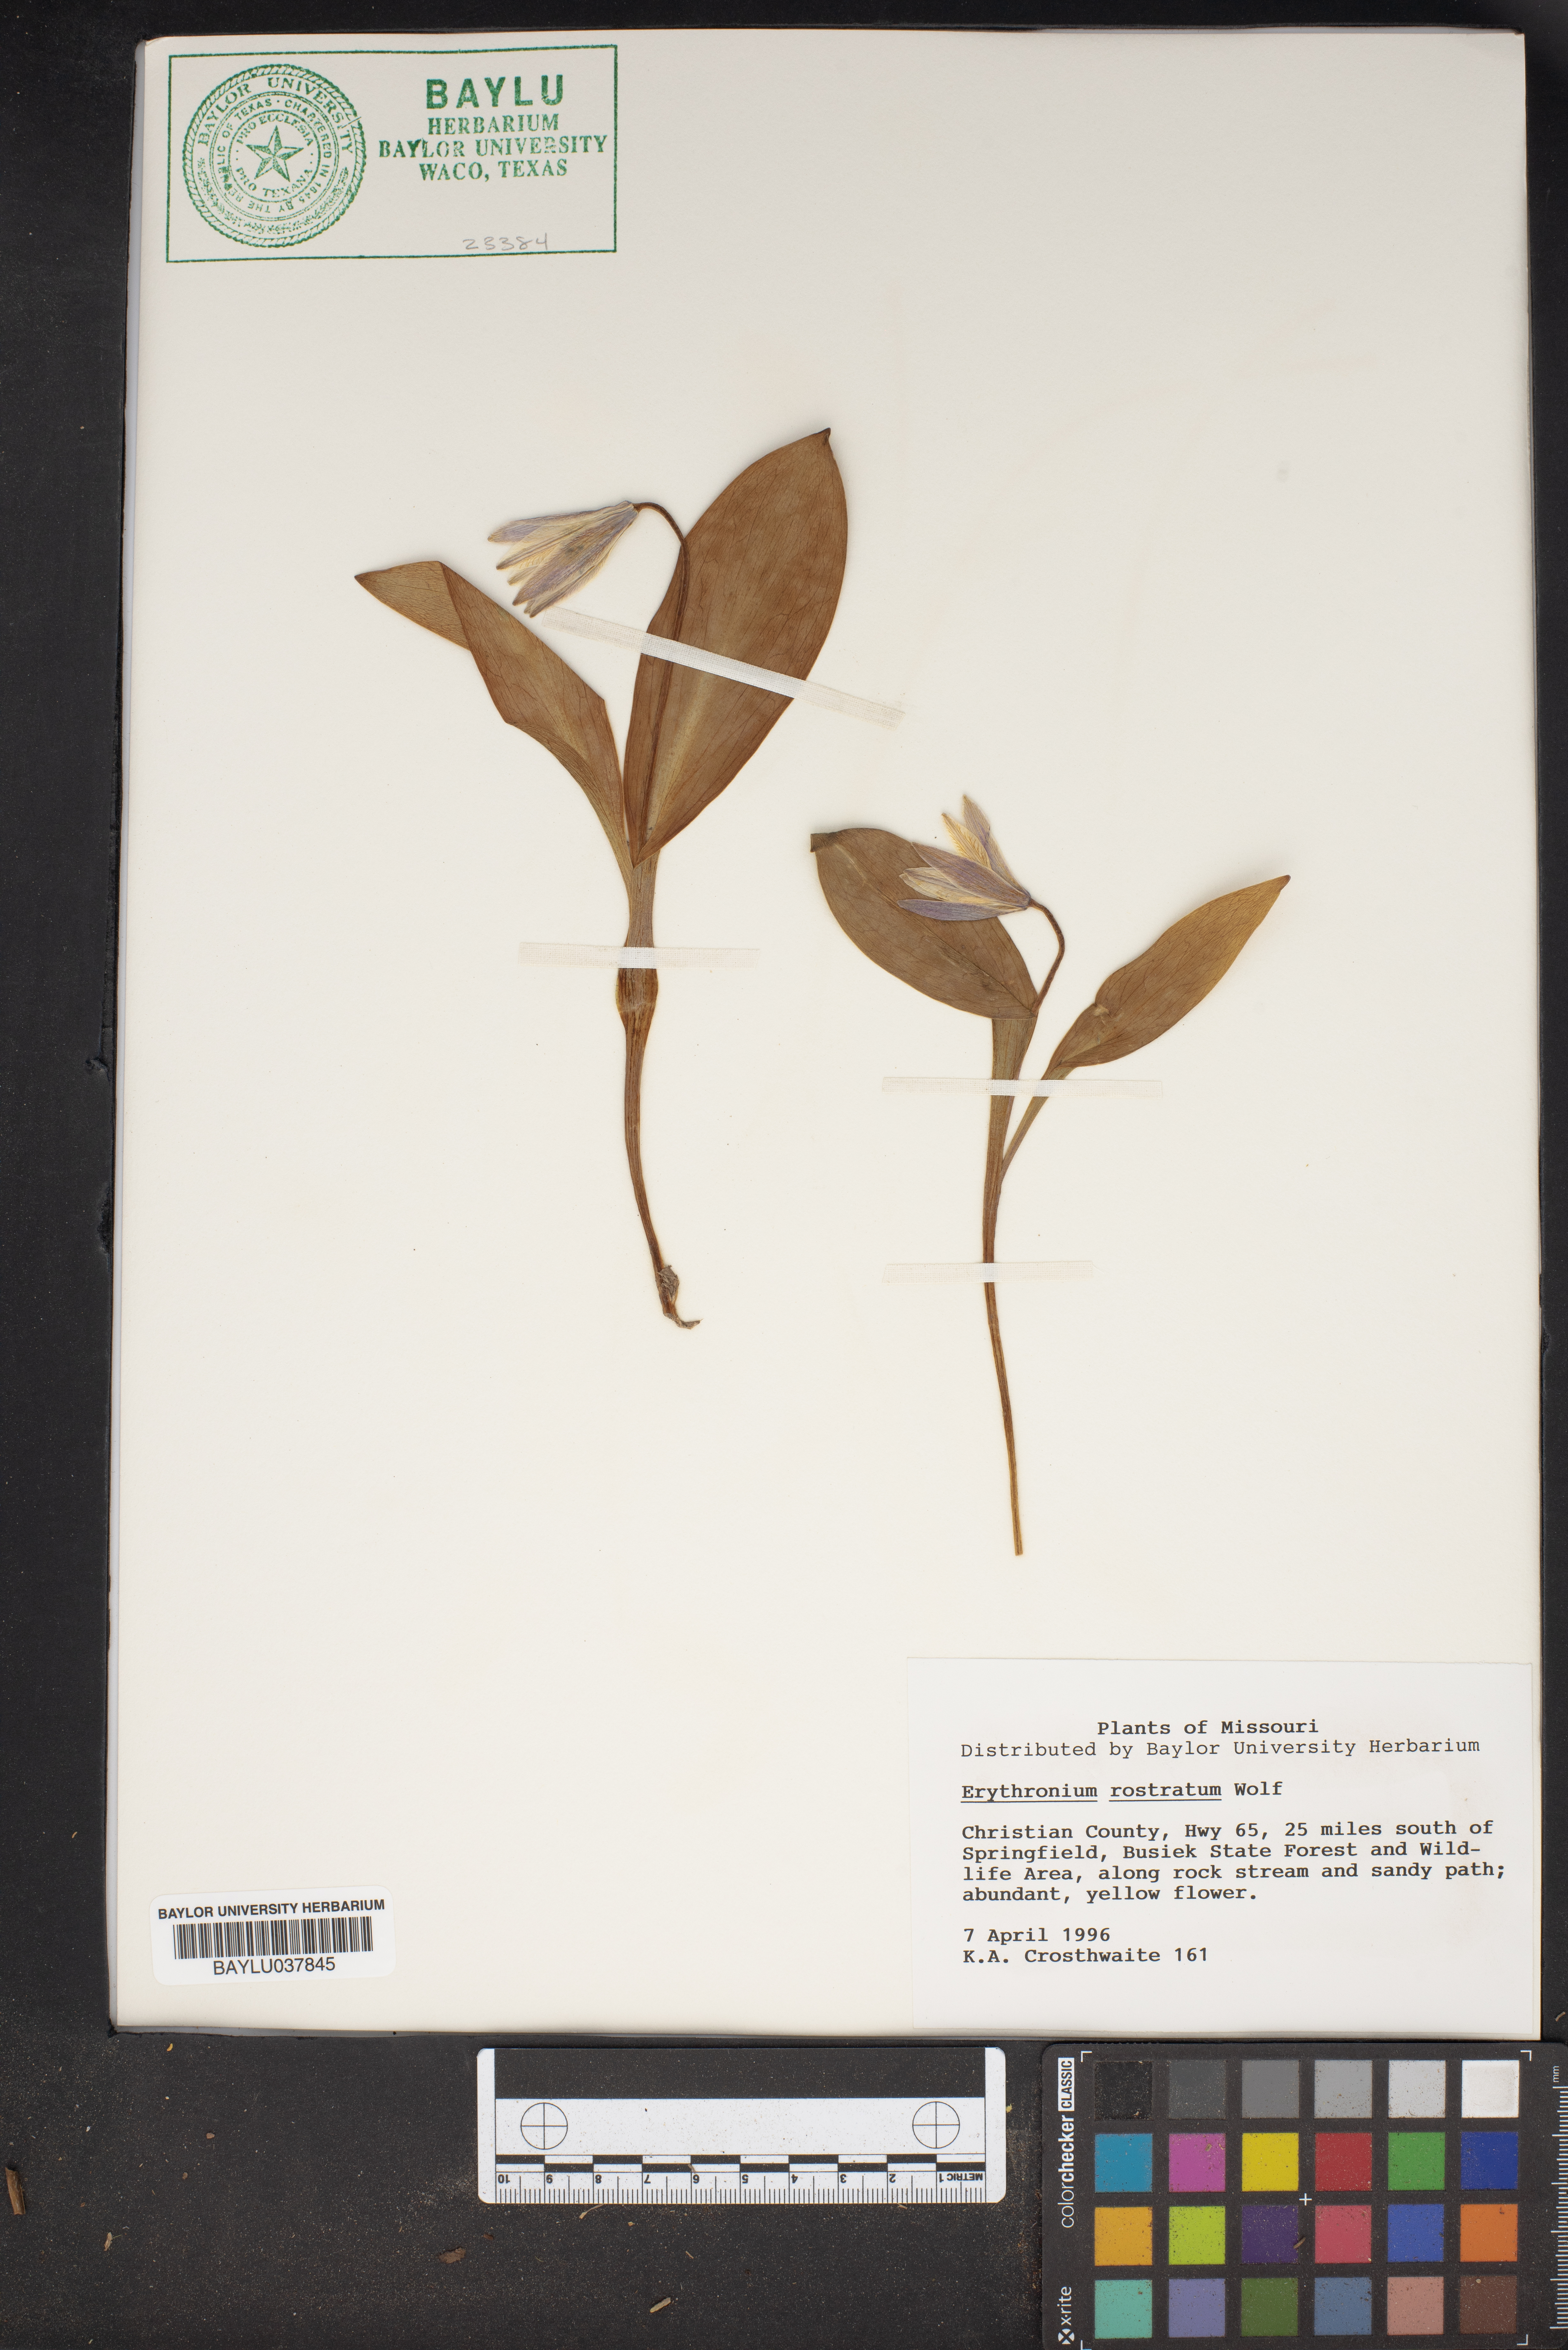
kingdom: Plantae
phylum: Tracheophyta
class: Liliopsida
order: Liliales
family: Liliaceae
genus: Erythronium
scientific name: Erythronium rostratum
